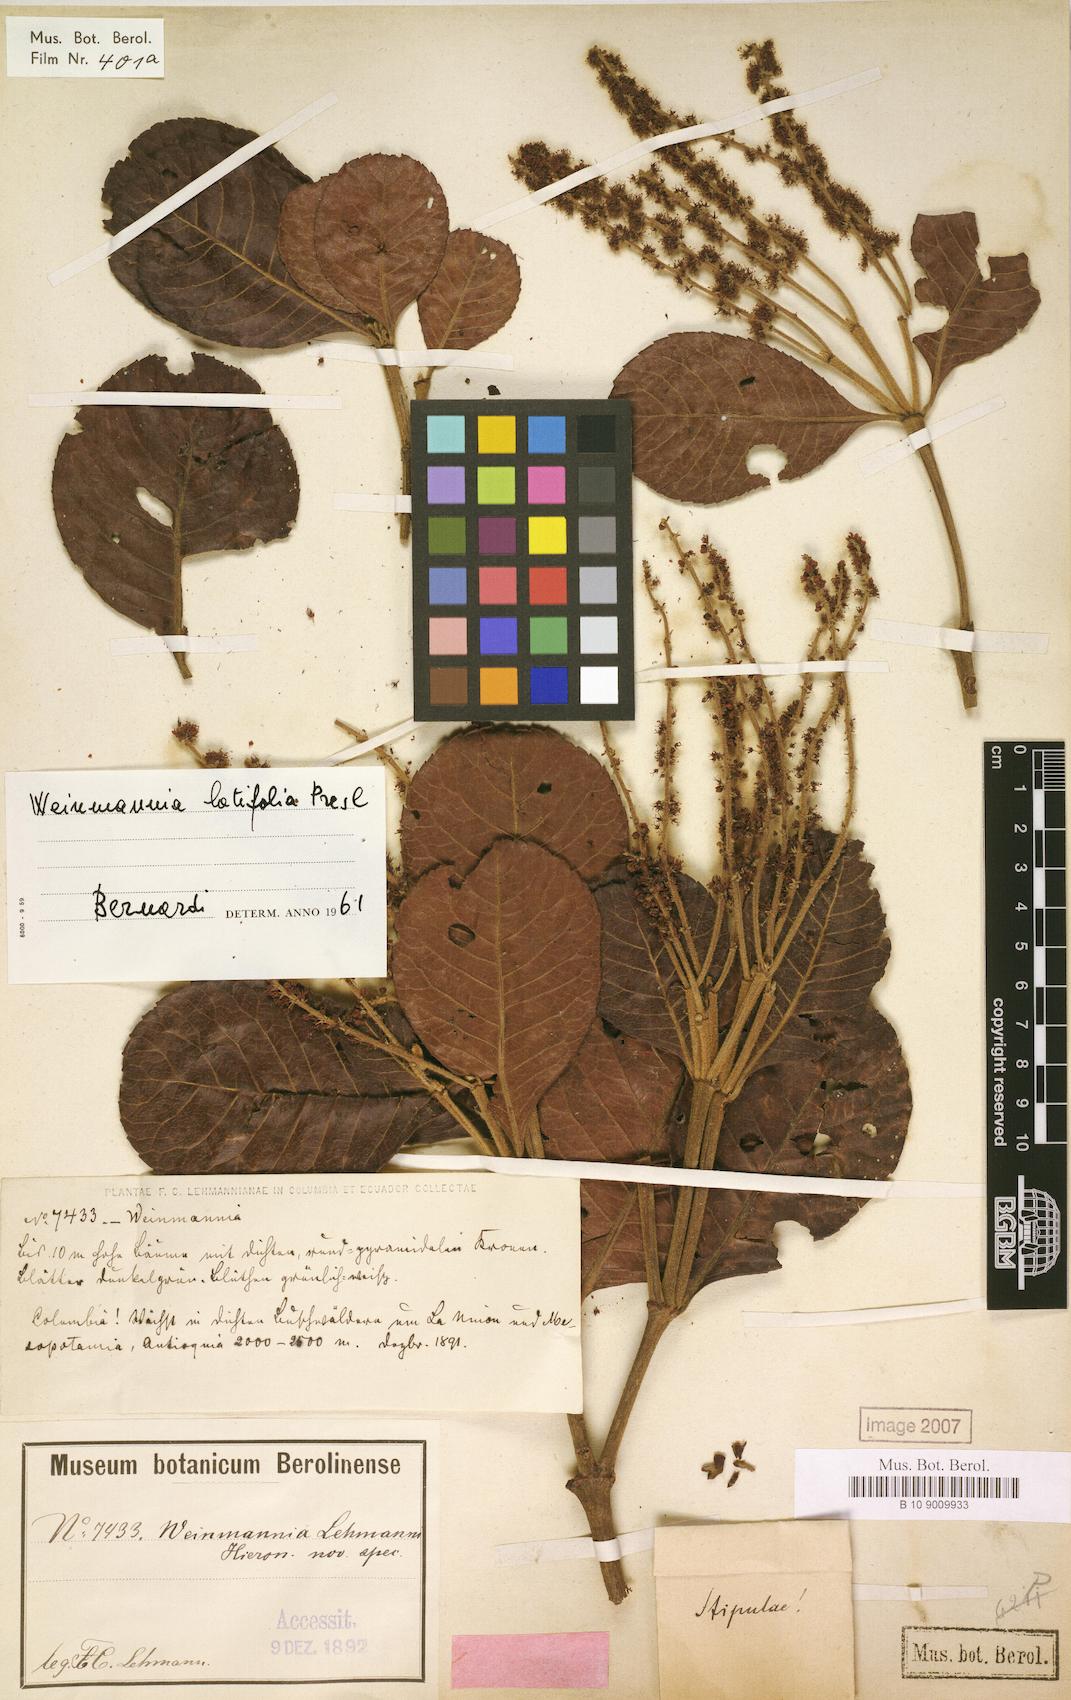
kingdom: Plantae
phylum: Tracheophyta
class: Magnoliopsida
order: Oxalidales
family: Cunoniaceae
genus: Weinmannia
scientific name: Weinmannia latifolia
